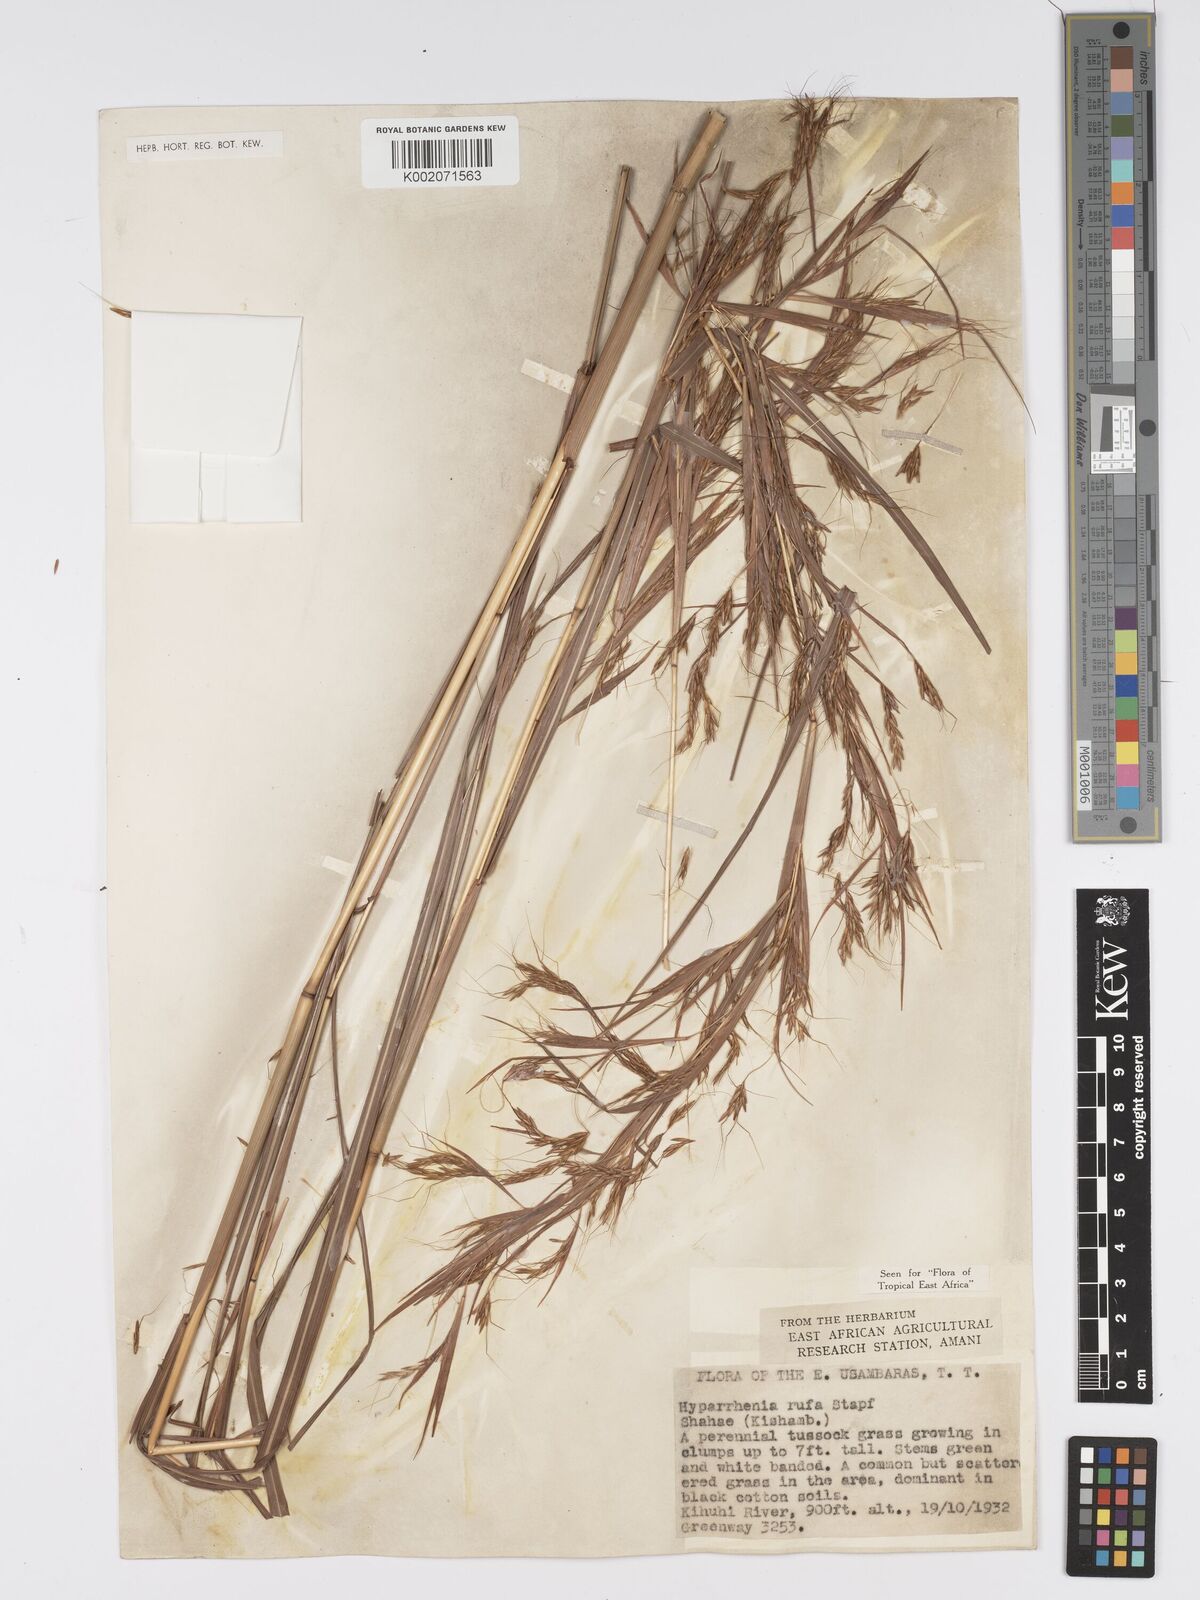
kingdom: Plantae
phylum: Tracheophyta
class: Liliopsida
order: Poales
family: Poaceae
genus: Hyparrhenia
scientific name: Hyparrhenia rufa
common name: Jaraguagrass
